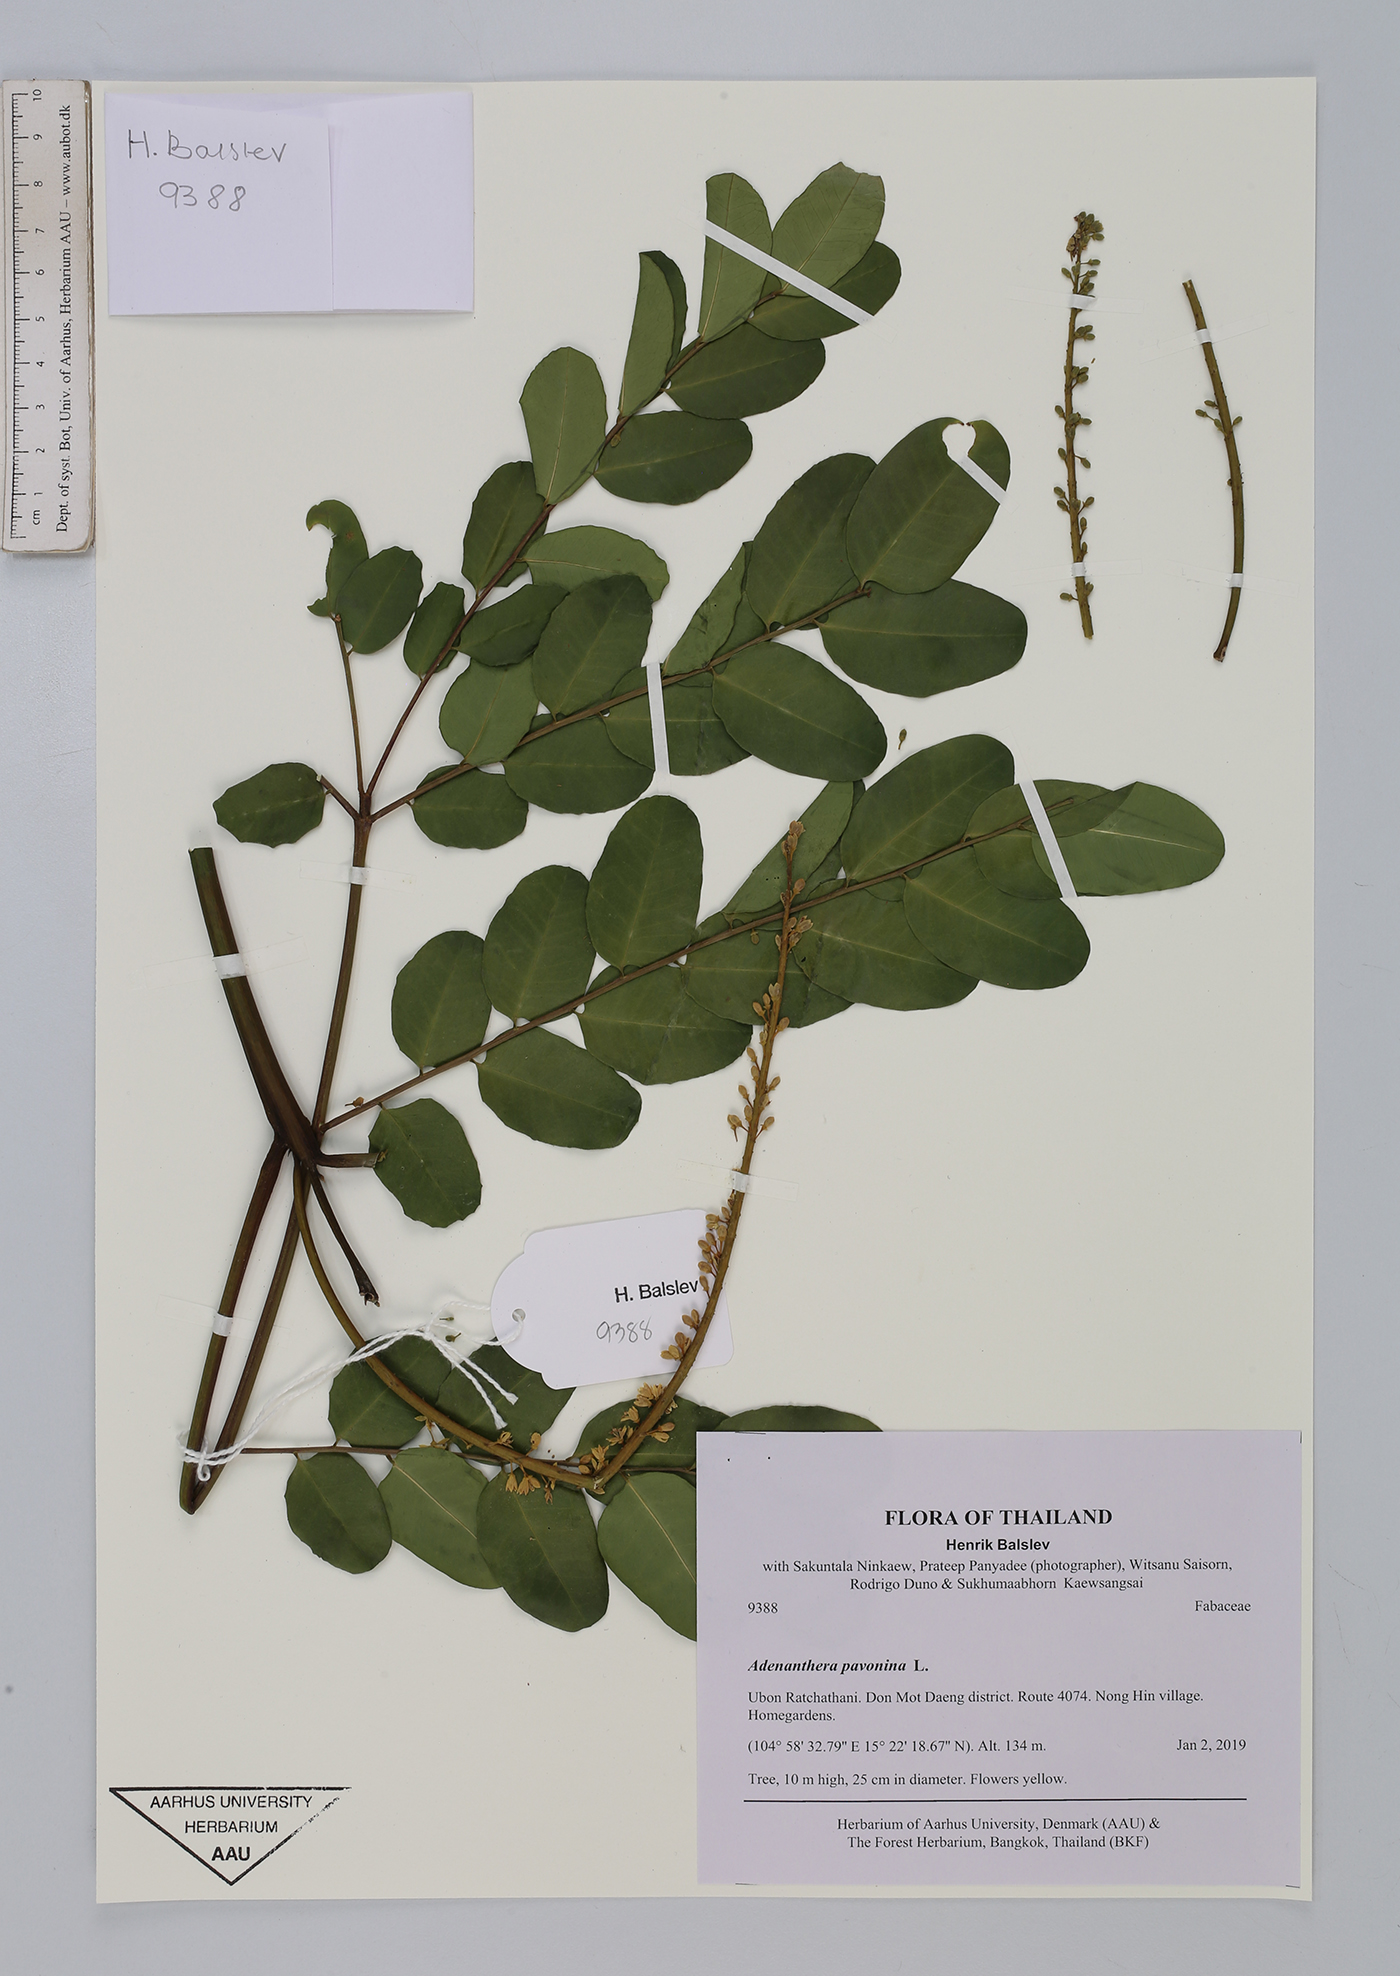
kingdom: Plantae
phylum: Tracheophyta
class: Magnoliopsida
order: Fabales
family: Fabaceae
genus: Adenanthera
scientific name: Adenanthera pavonina
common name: Red beadtree
